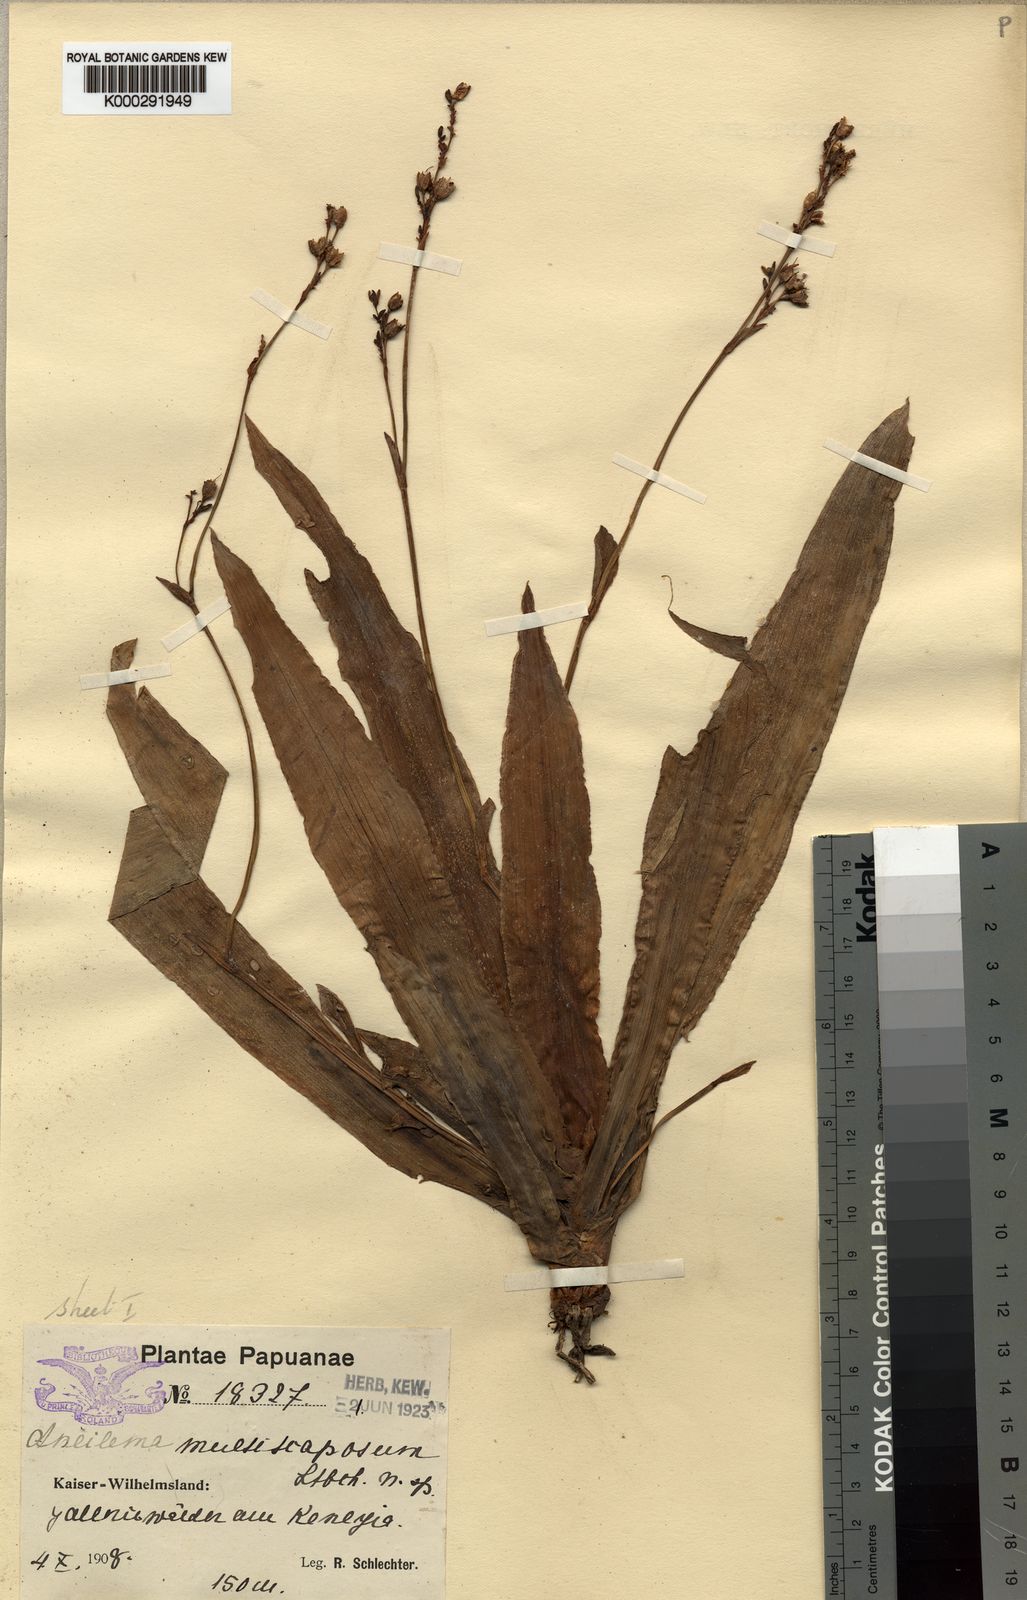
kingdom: Plantae
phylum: Tracheophyta
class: Liliopsida
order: Commelinales
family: Commelinaceae
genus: Murdannia
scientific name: Murdannia
